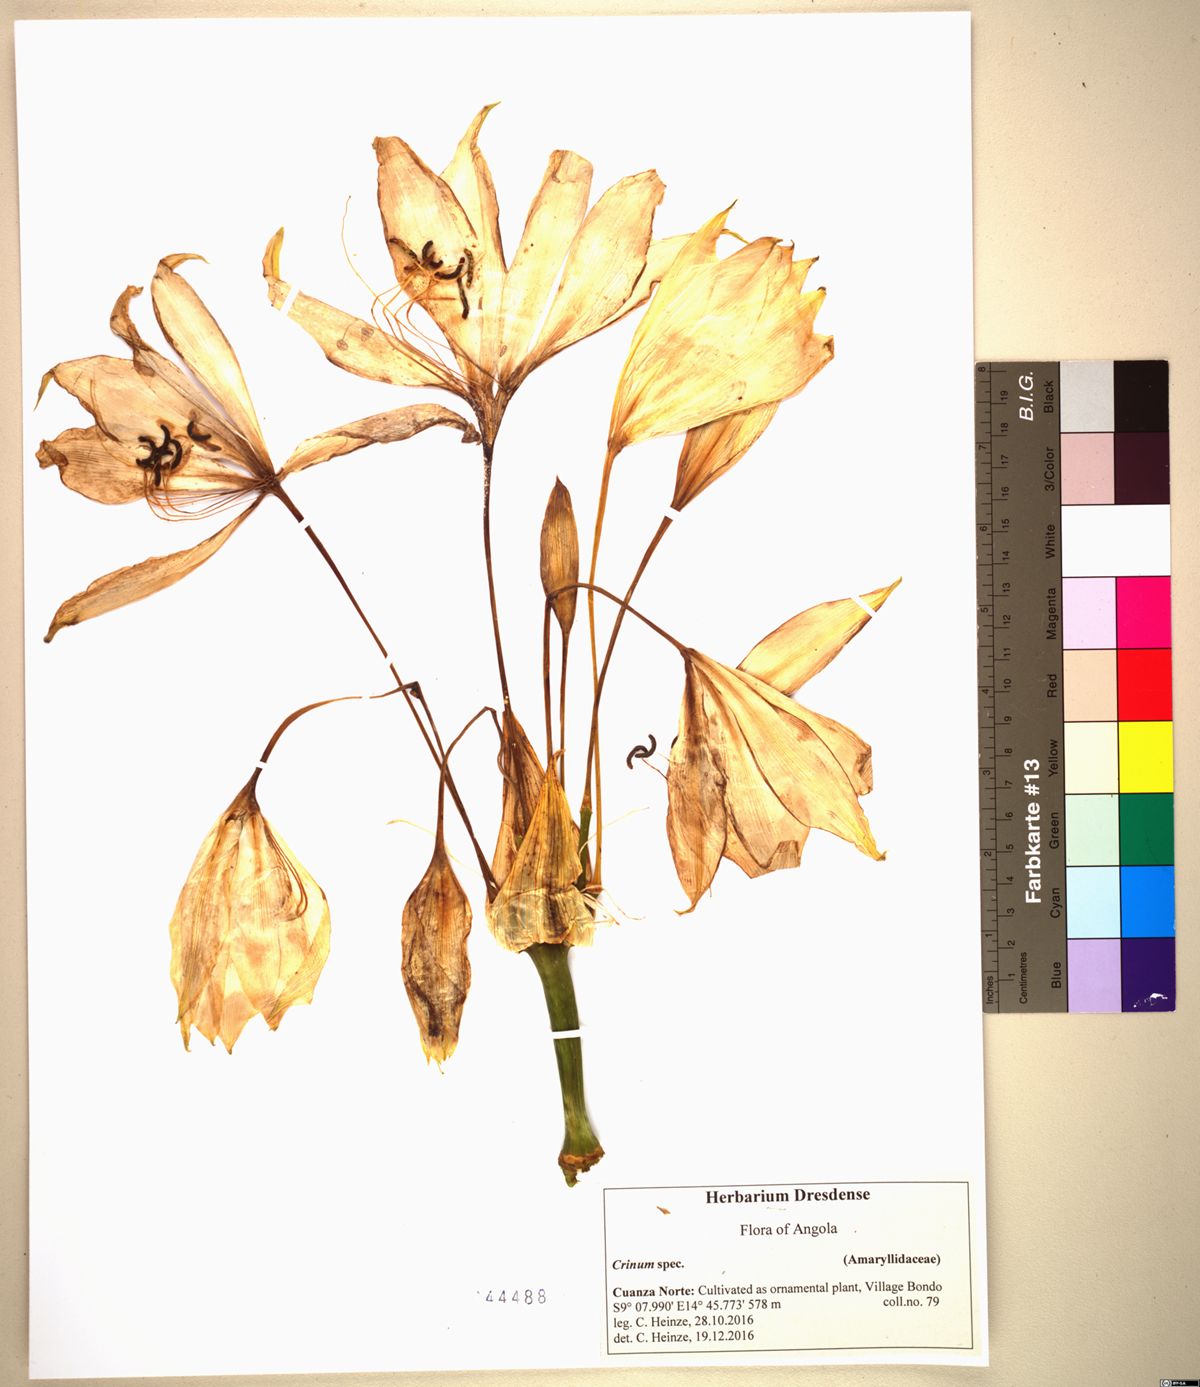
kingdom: Plantae
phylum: Tracheophyta
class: Liliopsida
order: Asparagales
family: Amaryllidaceae
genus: Crinum
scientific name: Crinum jagus
